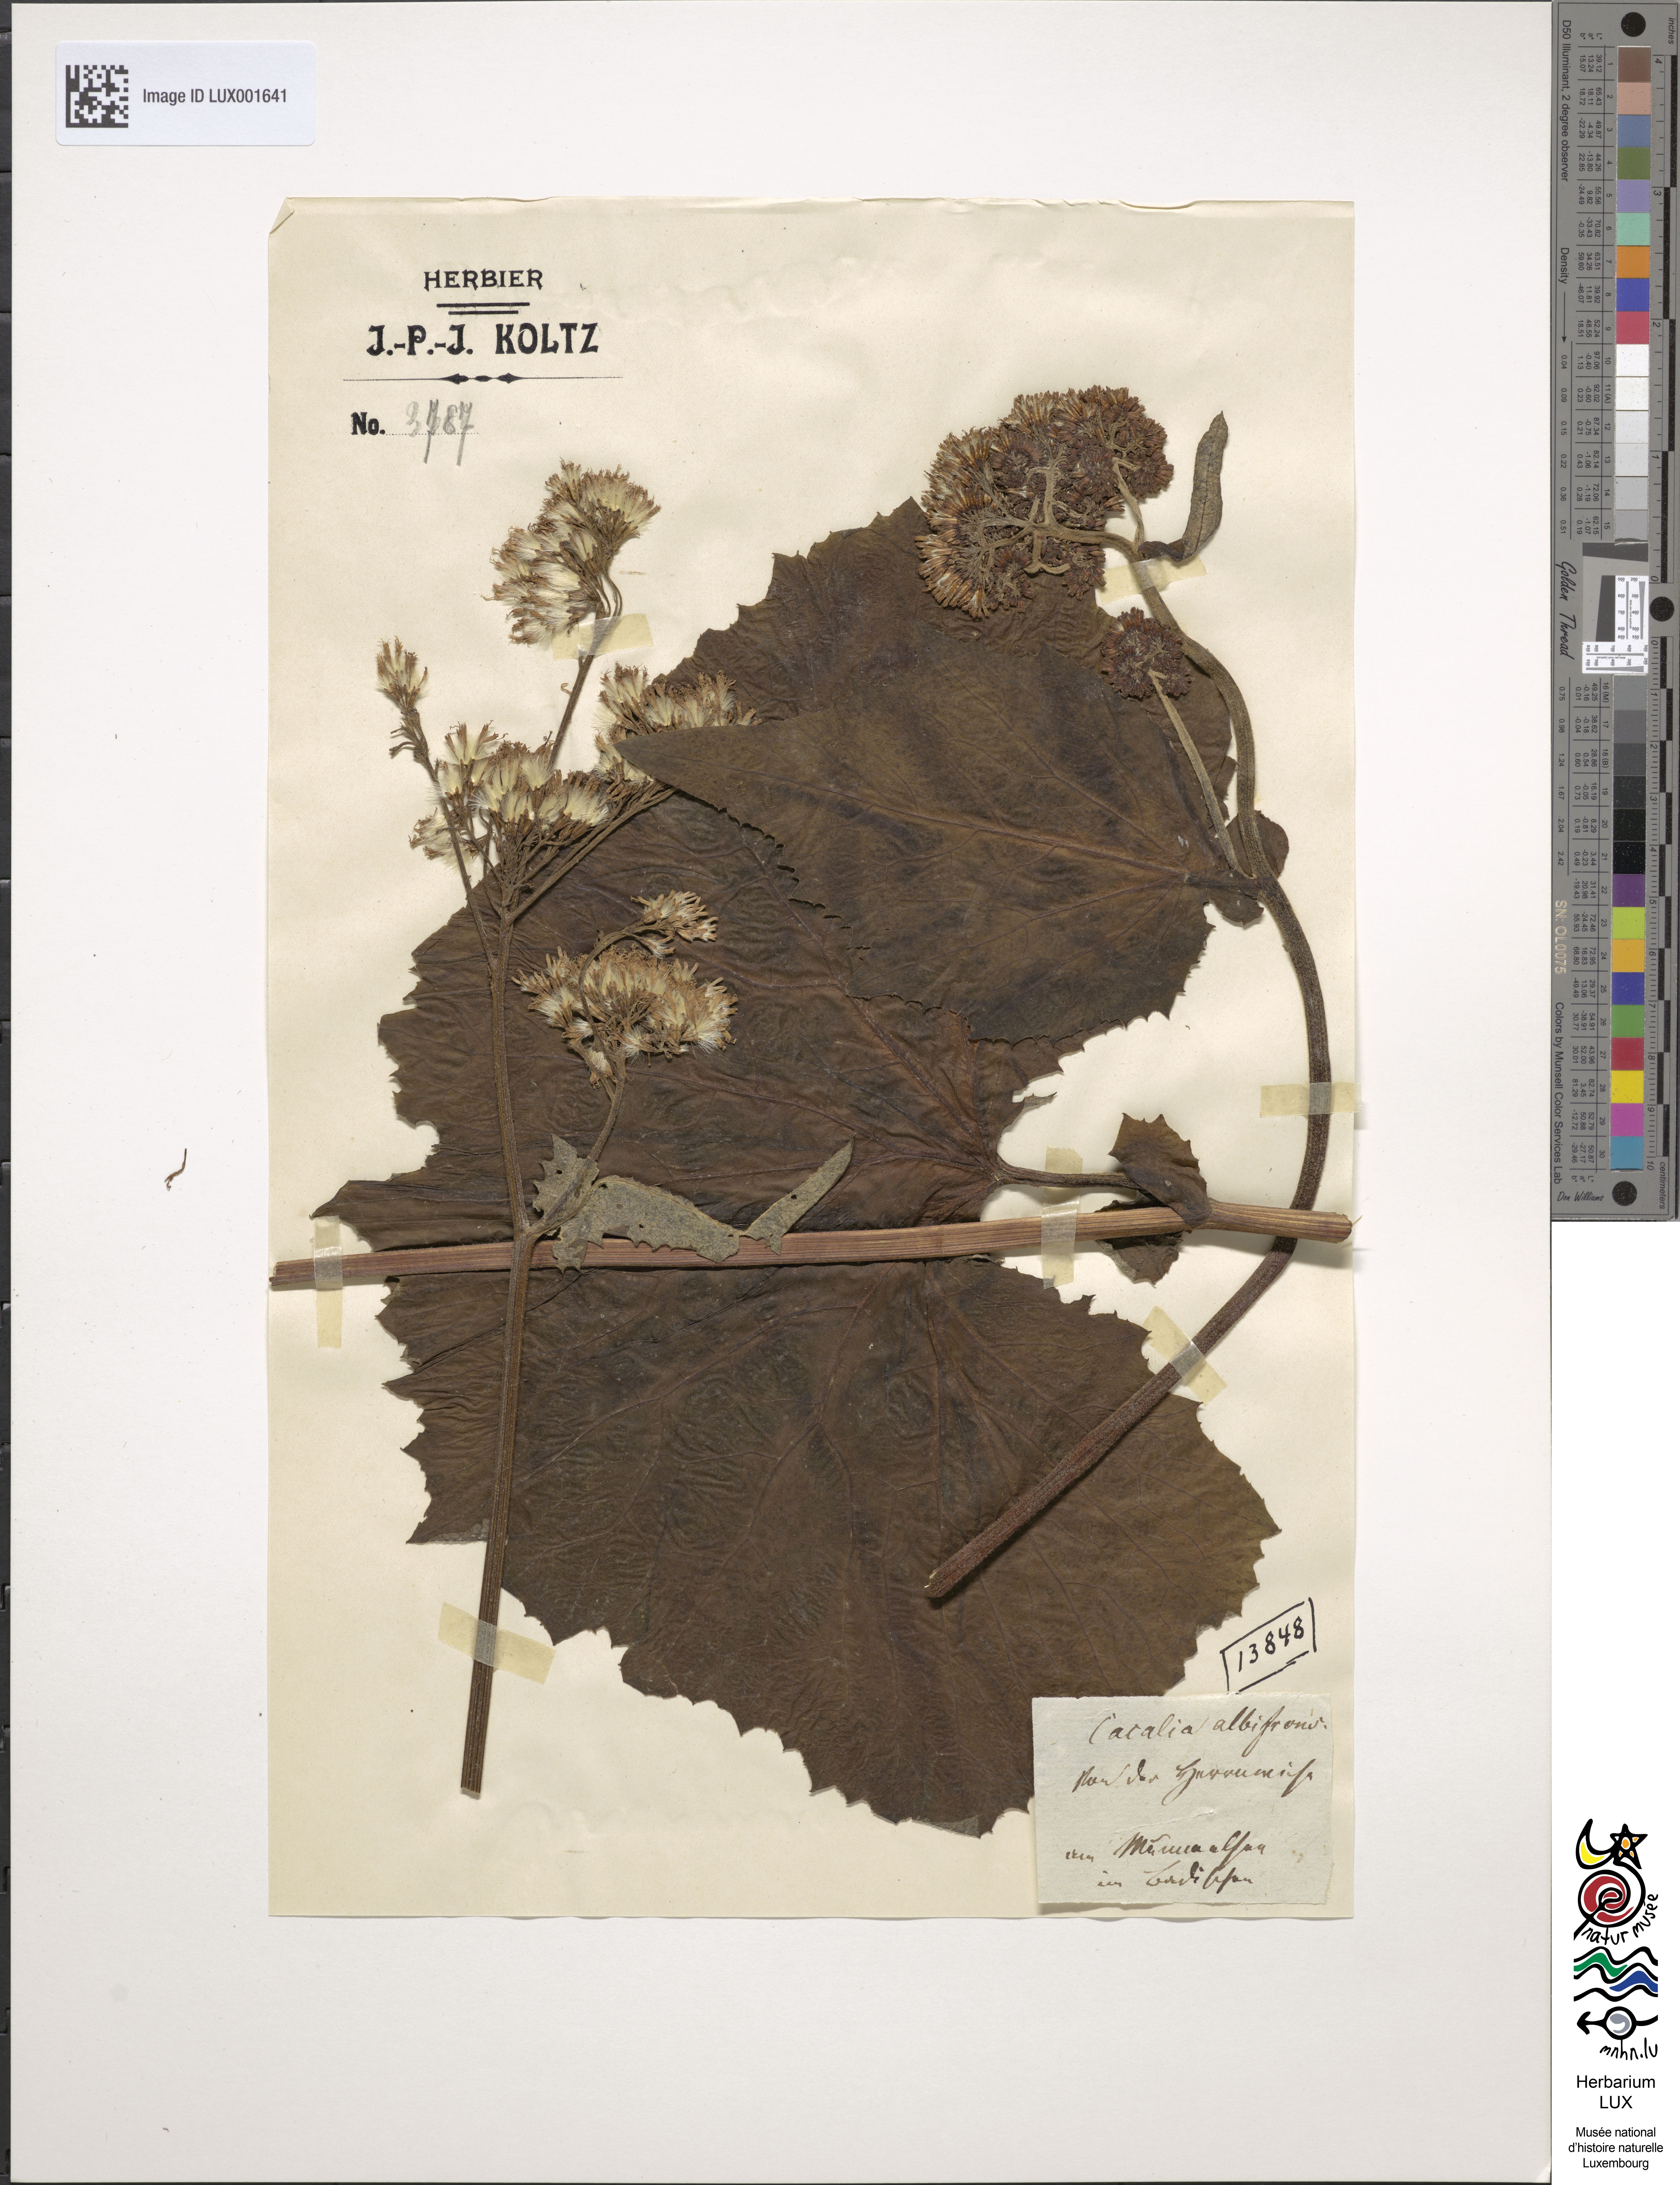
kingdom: Plantae
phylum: Tracheophyta
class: Magnoliopsida
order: Asterales
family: Asteraceae
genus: Adenostyles
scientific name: Adenostyles alliariae
